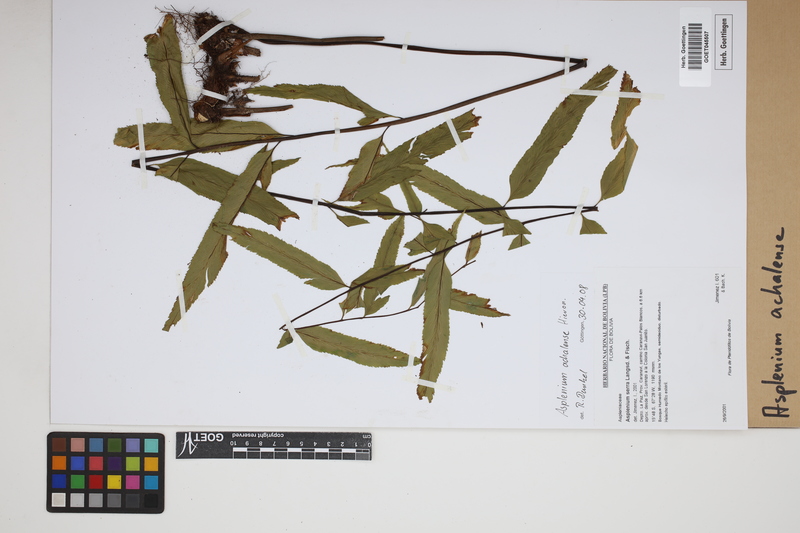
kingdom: Plantae
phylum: Tracheophyta
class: Polypodiopsida
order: Polypodiales
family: Aspleniaceae
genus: Asplenium
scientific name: Asplenium achalense
